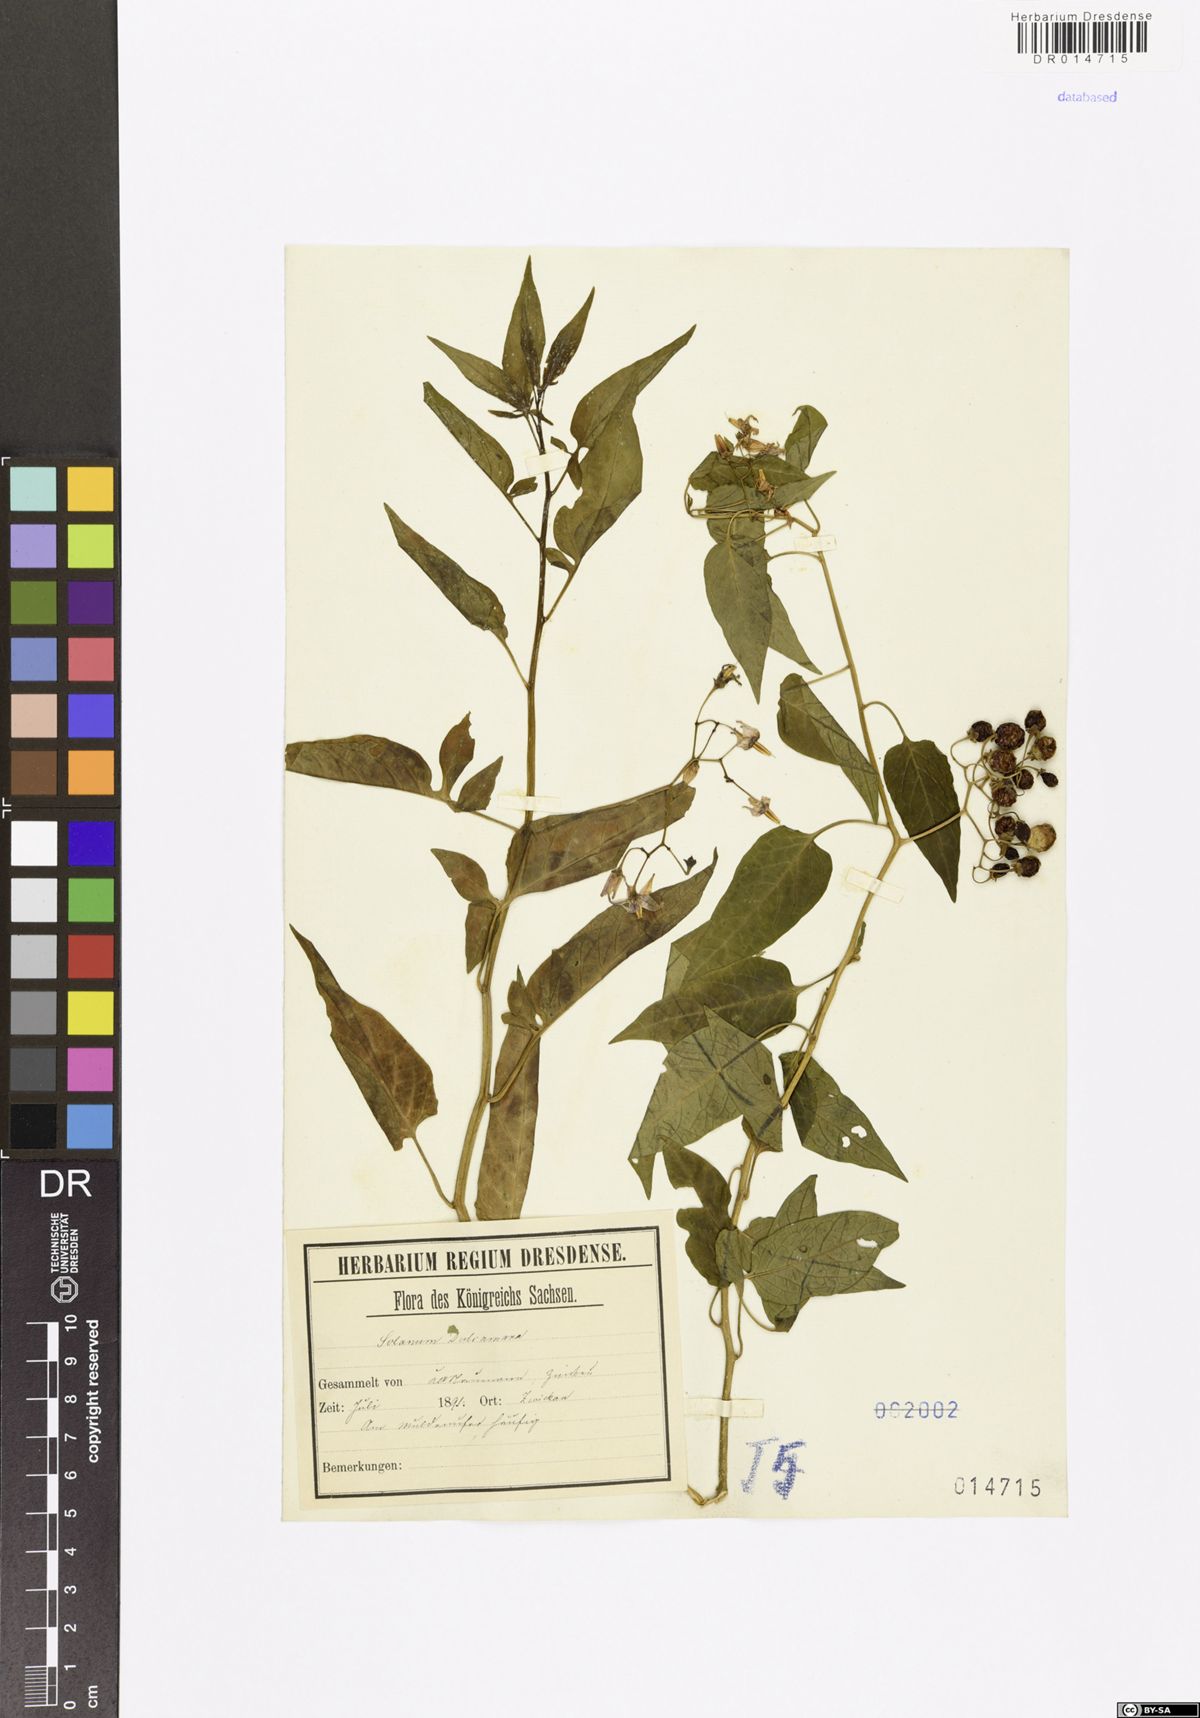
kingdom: Plantae
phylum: Tracheophyta
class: Magnoliopsida
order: Solanales
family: Solanaceae
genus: Solanum
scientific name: Solanum dulcamara
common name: Climbing nightshade
